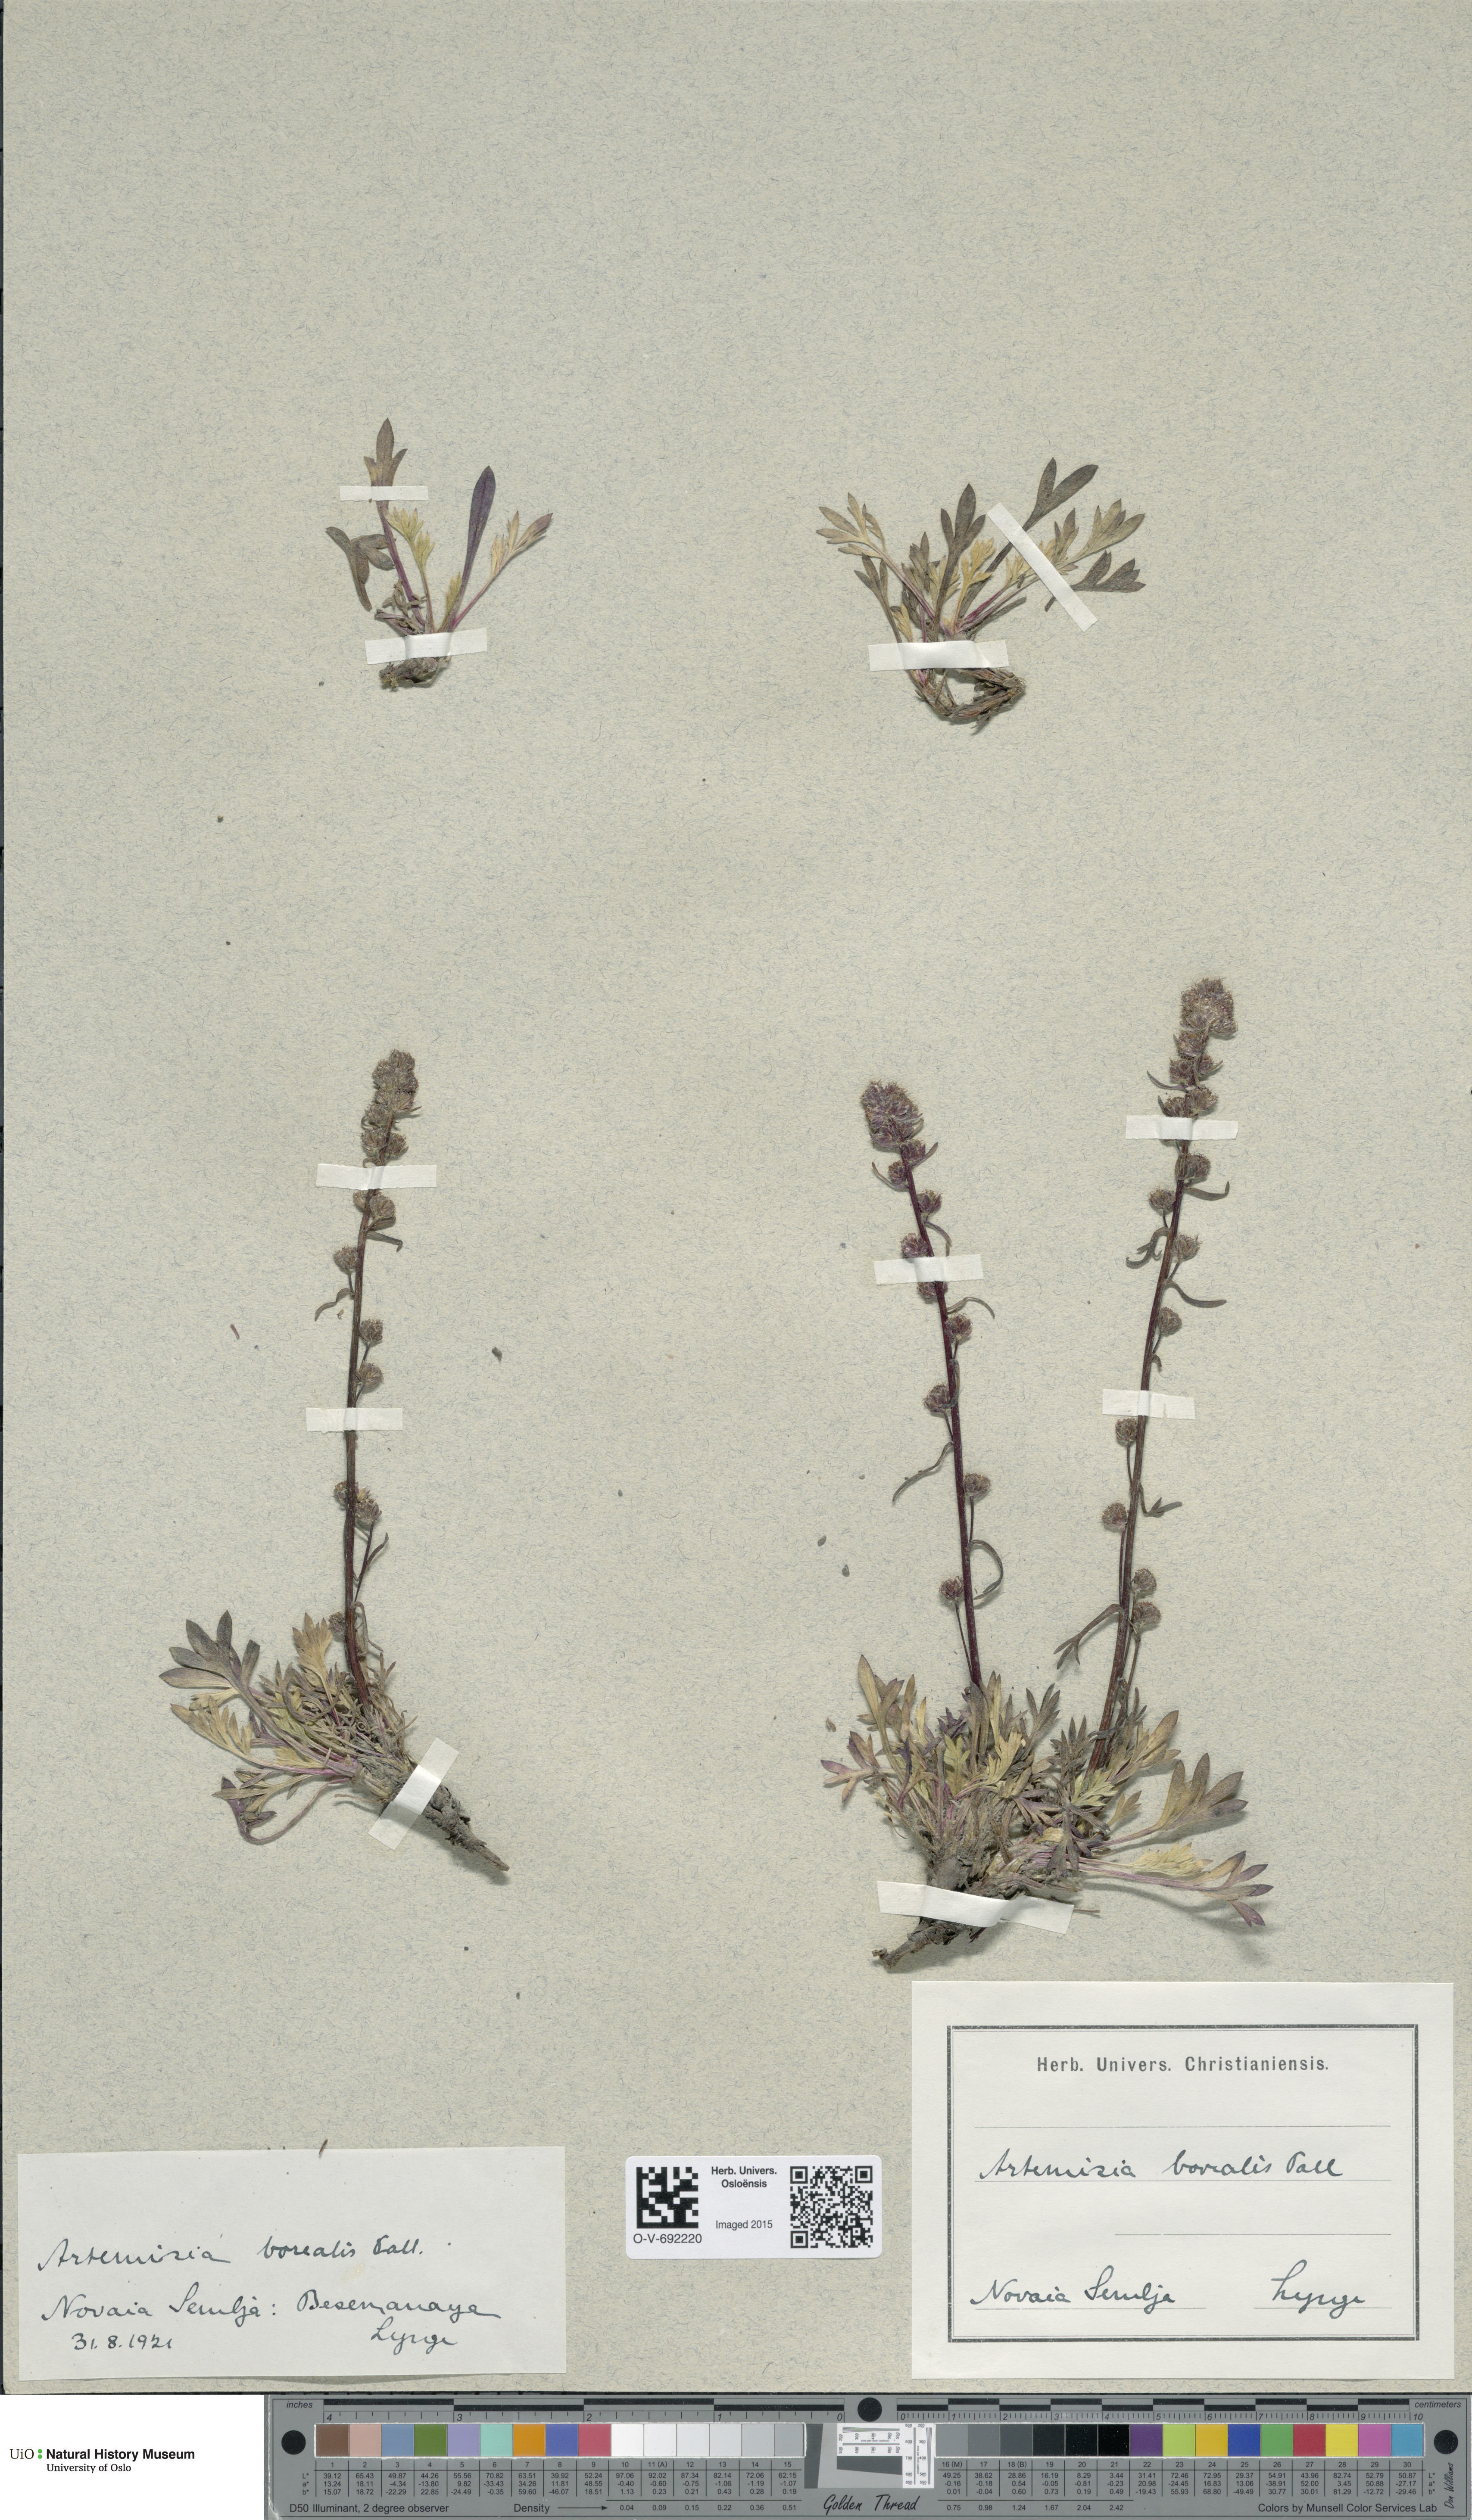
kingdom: Plantae
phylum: Tracheophyta
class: Magnoliopsida
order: Asterales
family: Asteraceae
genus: Artemisia
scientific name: Artemisia borealis
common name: Boreal sage
